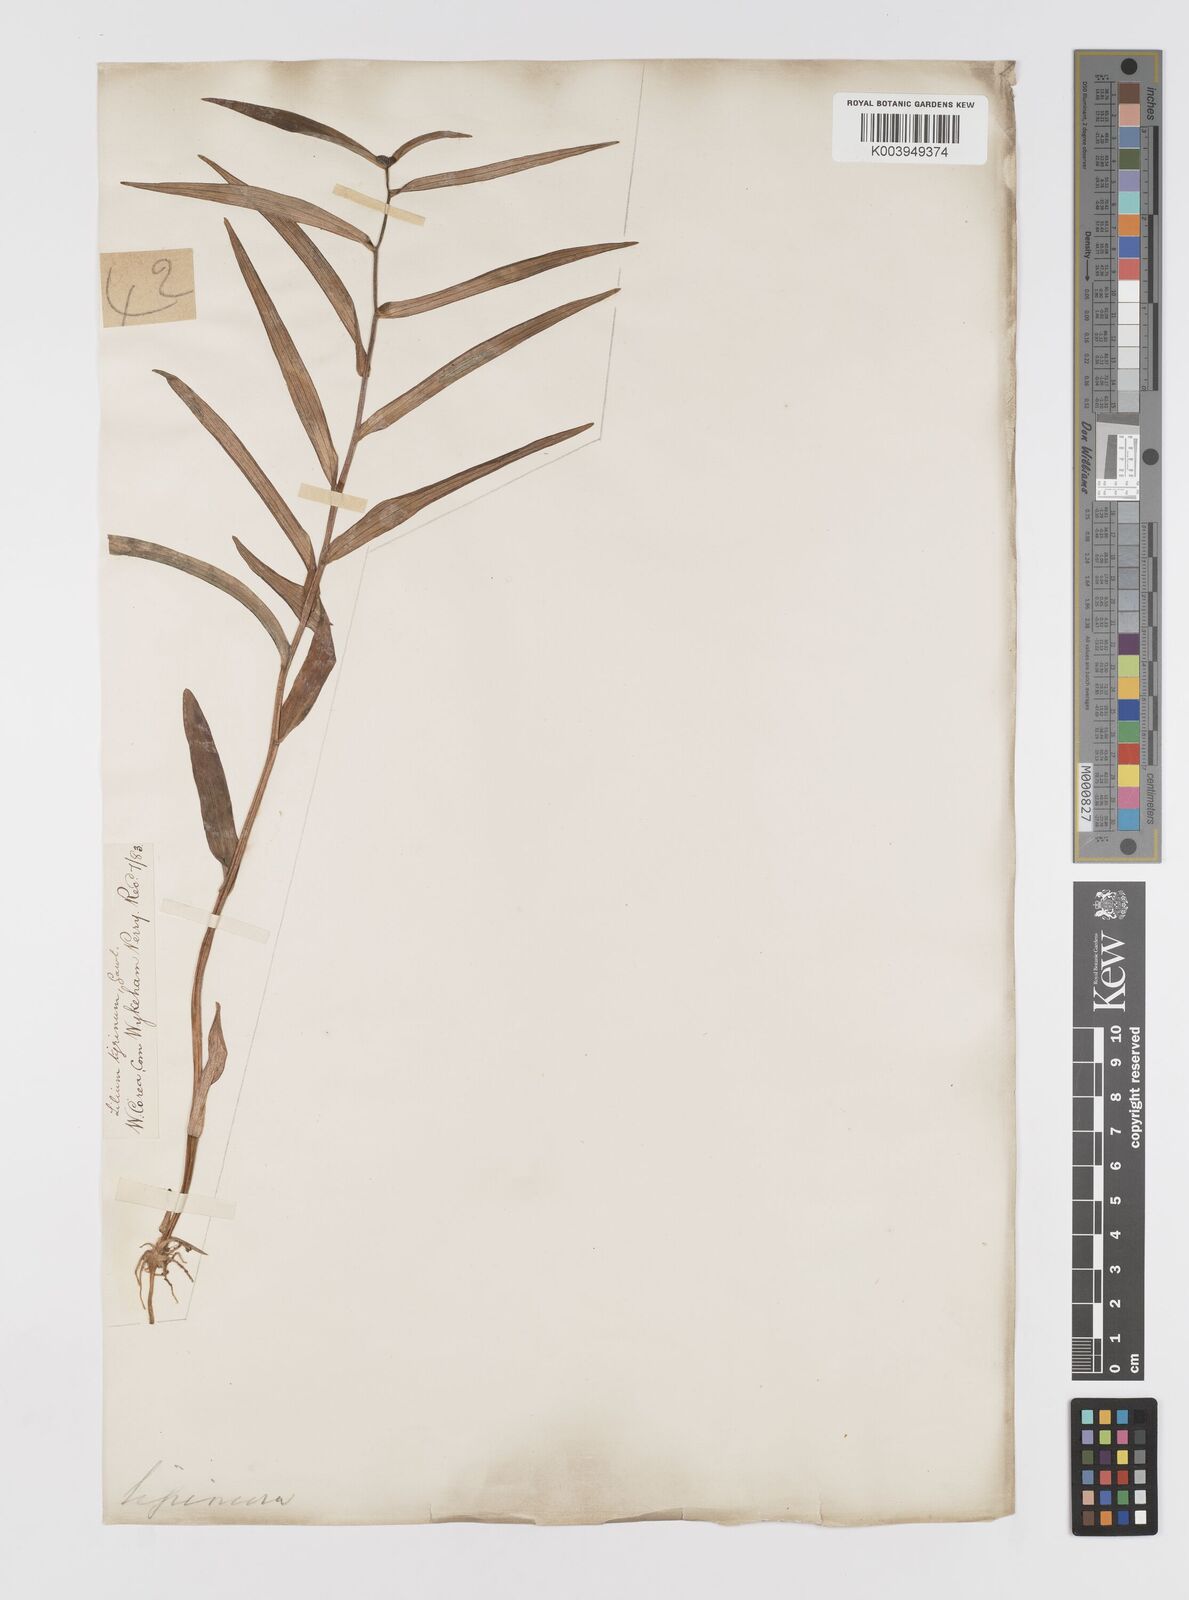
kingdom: Plantae
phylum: Tracheophyta
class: Liliopsida
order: Liliales
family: Liliaceae
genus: Lilium
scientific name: Lilium lancifolium
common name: Tiger lily
